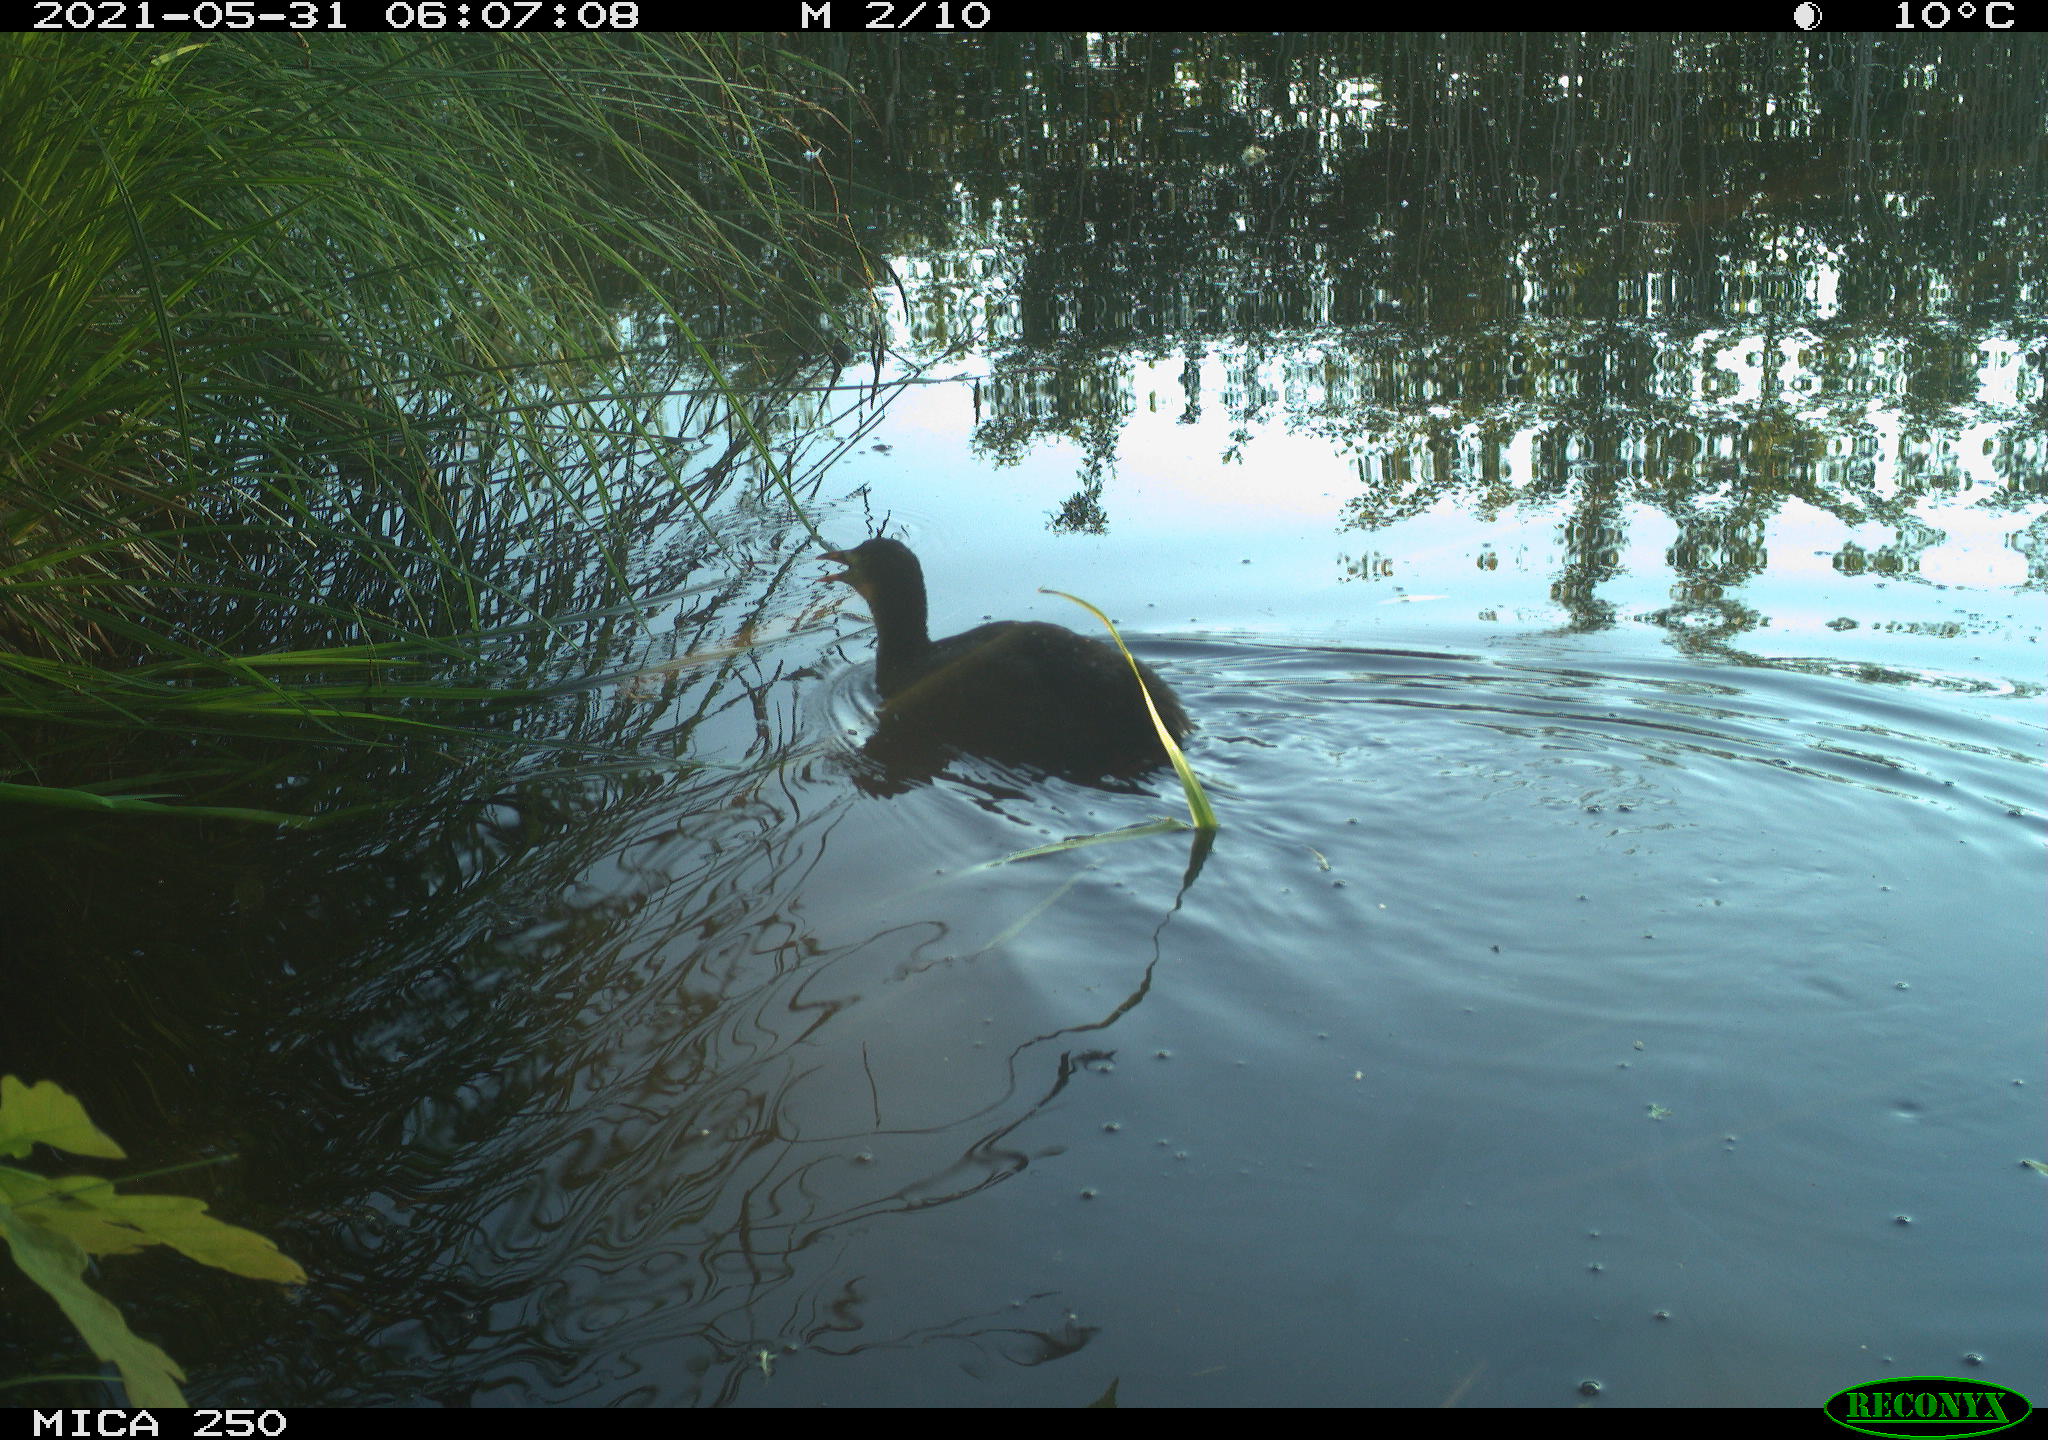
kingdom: Animalia
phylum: Chordata
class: Aves
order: Gruiformes
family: Rallidae
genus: Fulica
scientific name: Fulica atra
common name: Eurasian coot
